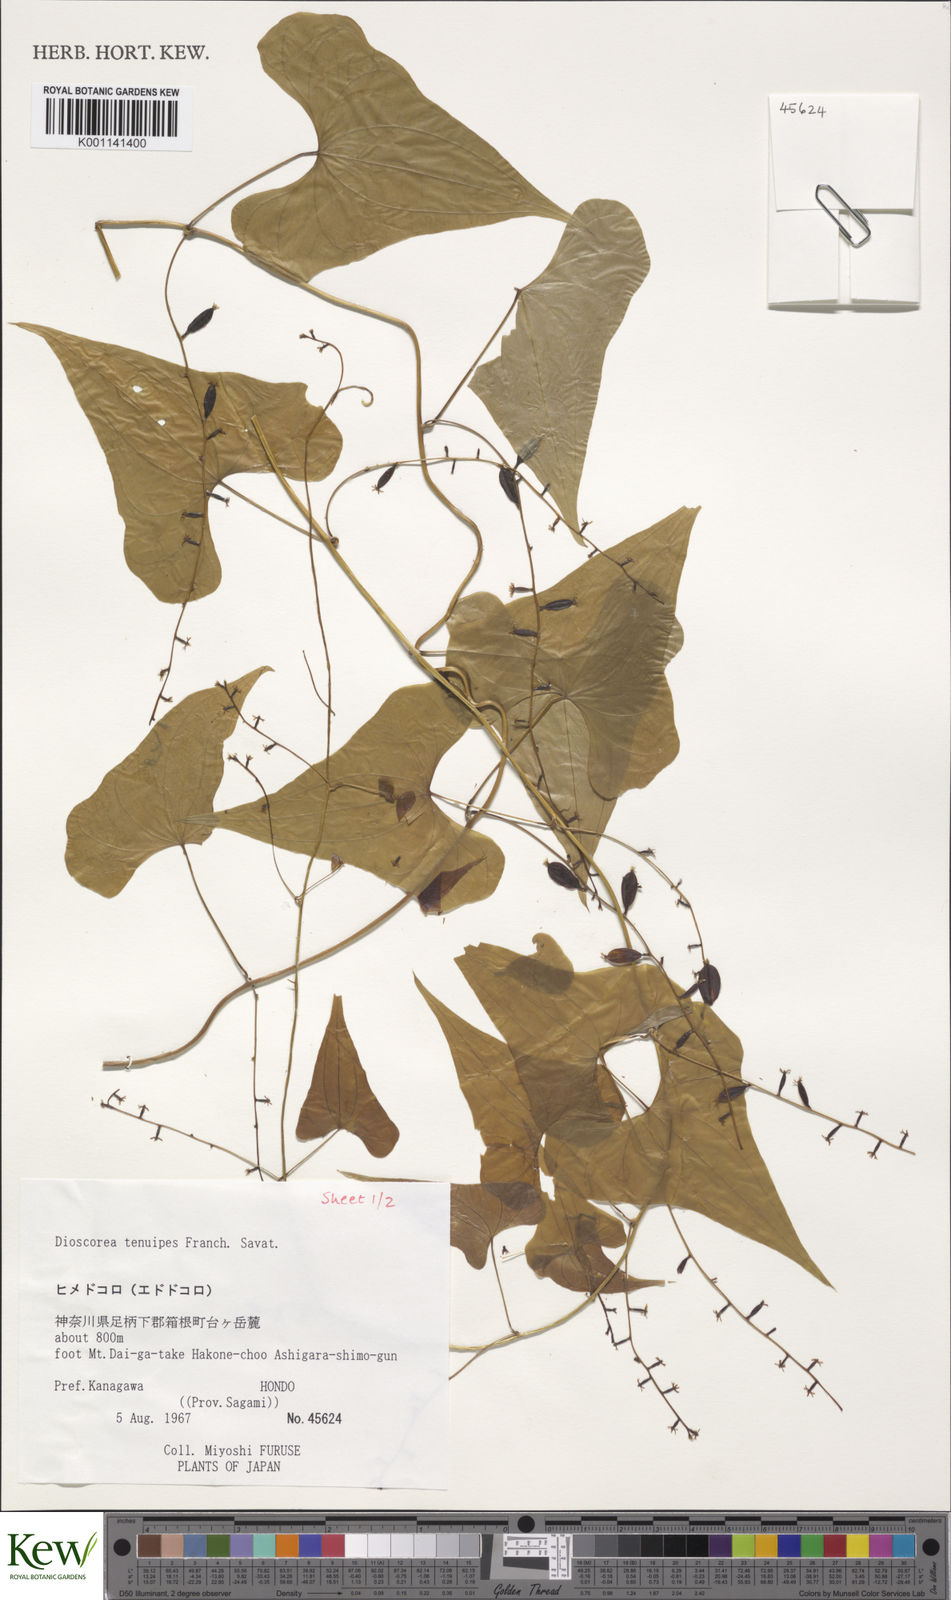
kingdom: Plantae
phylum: Tracheophyta
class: Liliopsida
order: Dioscoreales
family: Dioscoreaceae
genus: Dioscorea
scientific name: Dioscorea tenuipes
